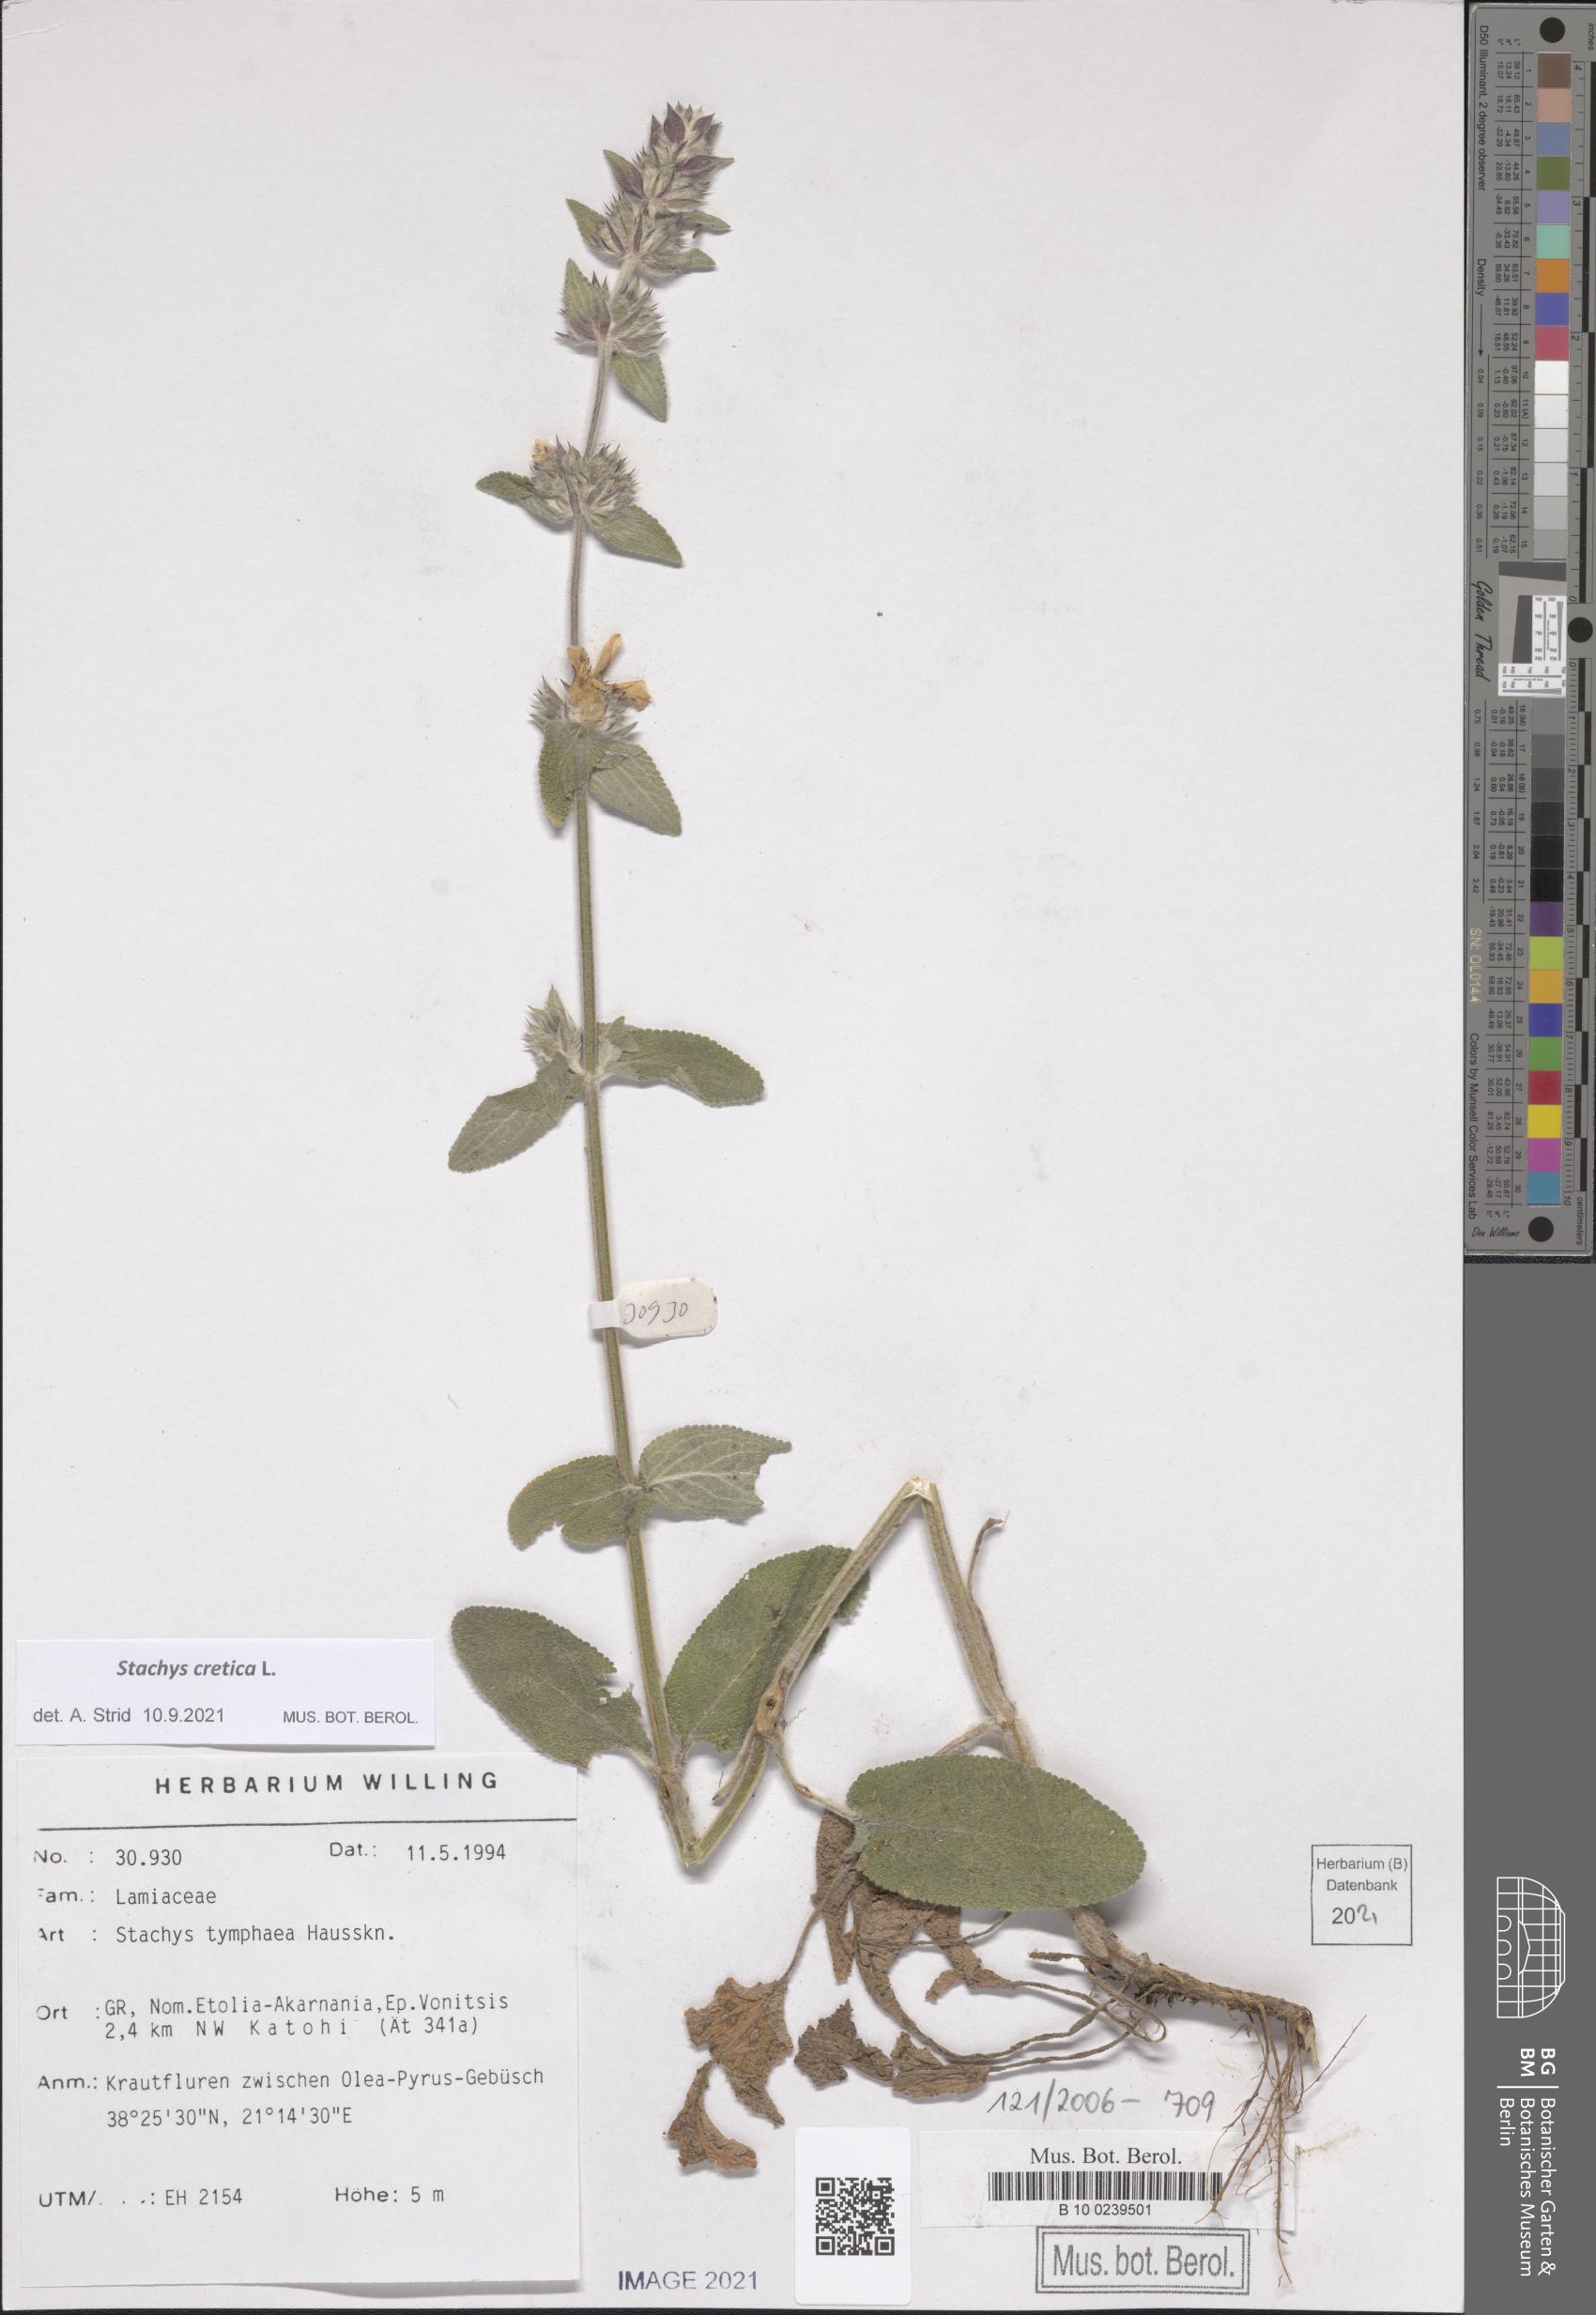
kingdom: Plantae
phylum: Tracheophyta
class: Magnoliopsida
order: Lamiales
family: Lamiaceae
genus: Stachys
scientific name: Stachys cretica
